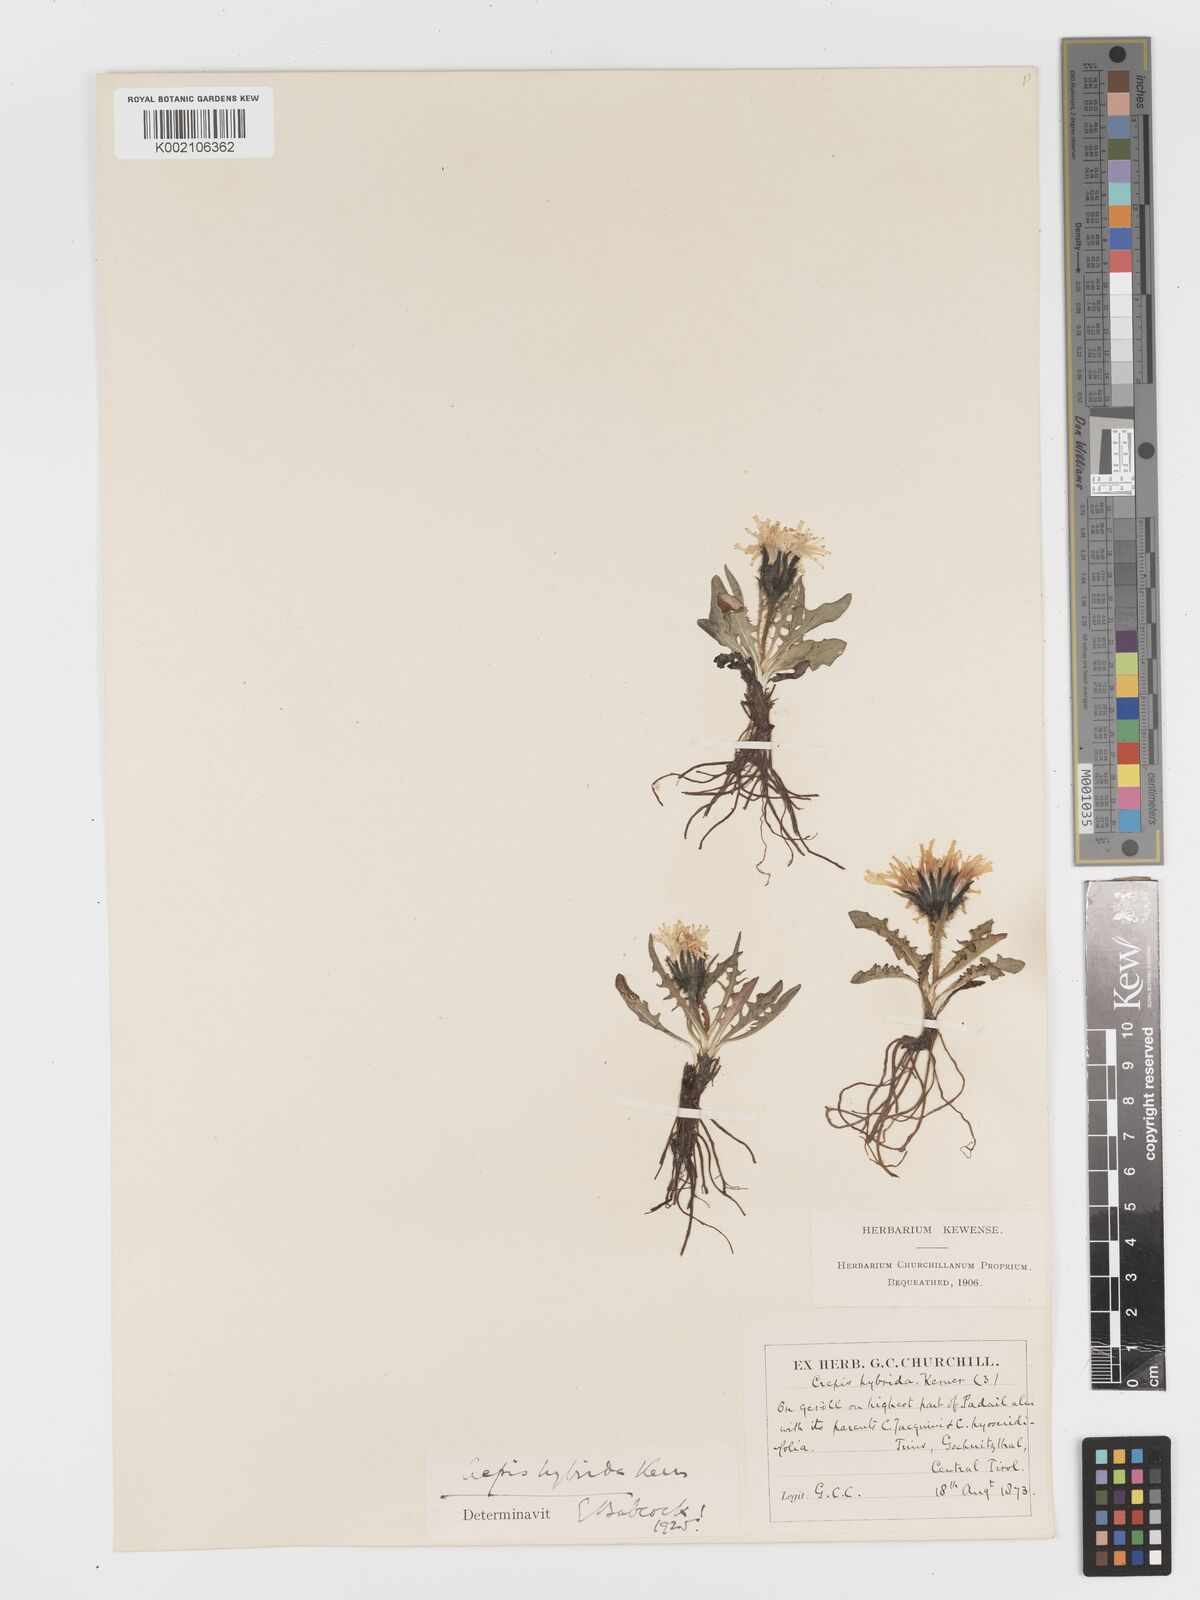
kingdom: Plantae
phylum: Tracheophyta
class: Magnoliopsida
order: Asterales
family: Asteraceae
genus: Crepis
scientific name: Crepis hybrida
